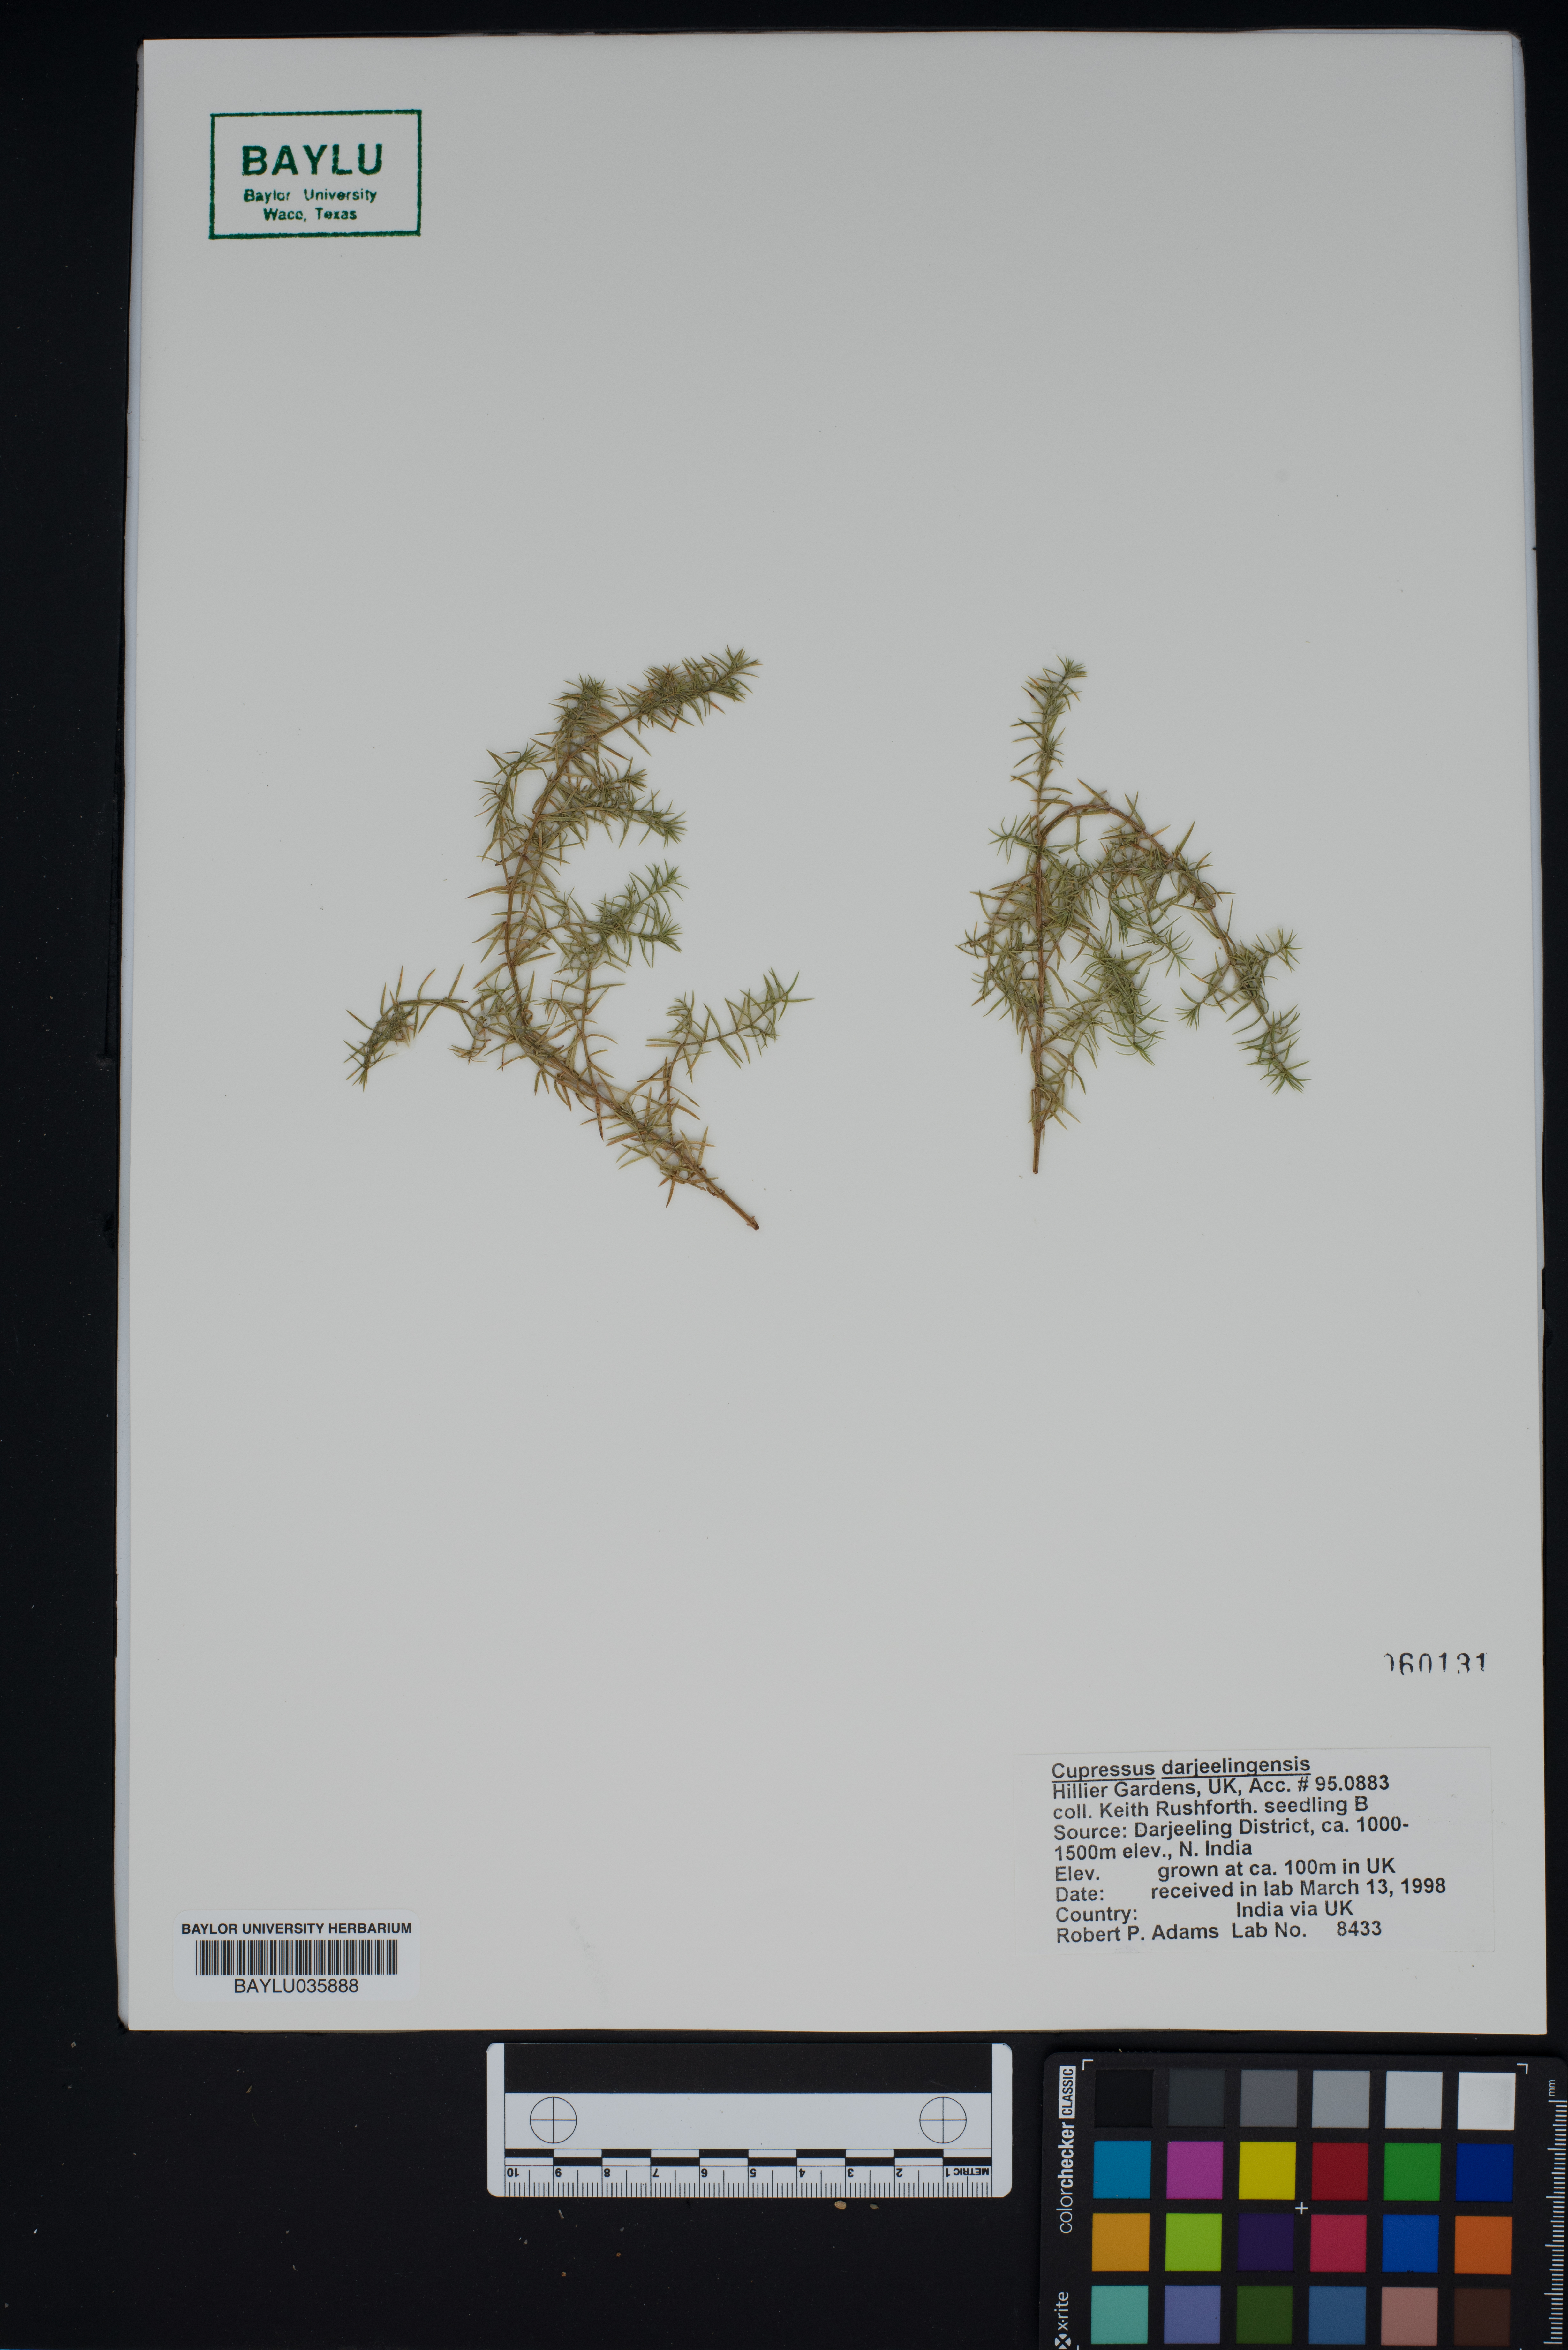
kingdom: Plantae
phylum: Tracheophyta
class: Pinopsida
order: Pinales
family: Cupressaceae
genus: Cupressus
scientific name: Cupressus cashmeriana
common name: Bhutan cypress
